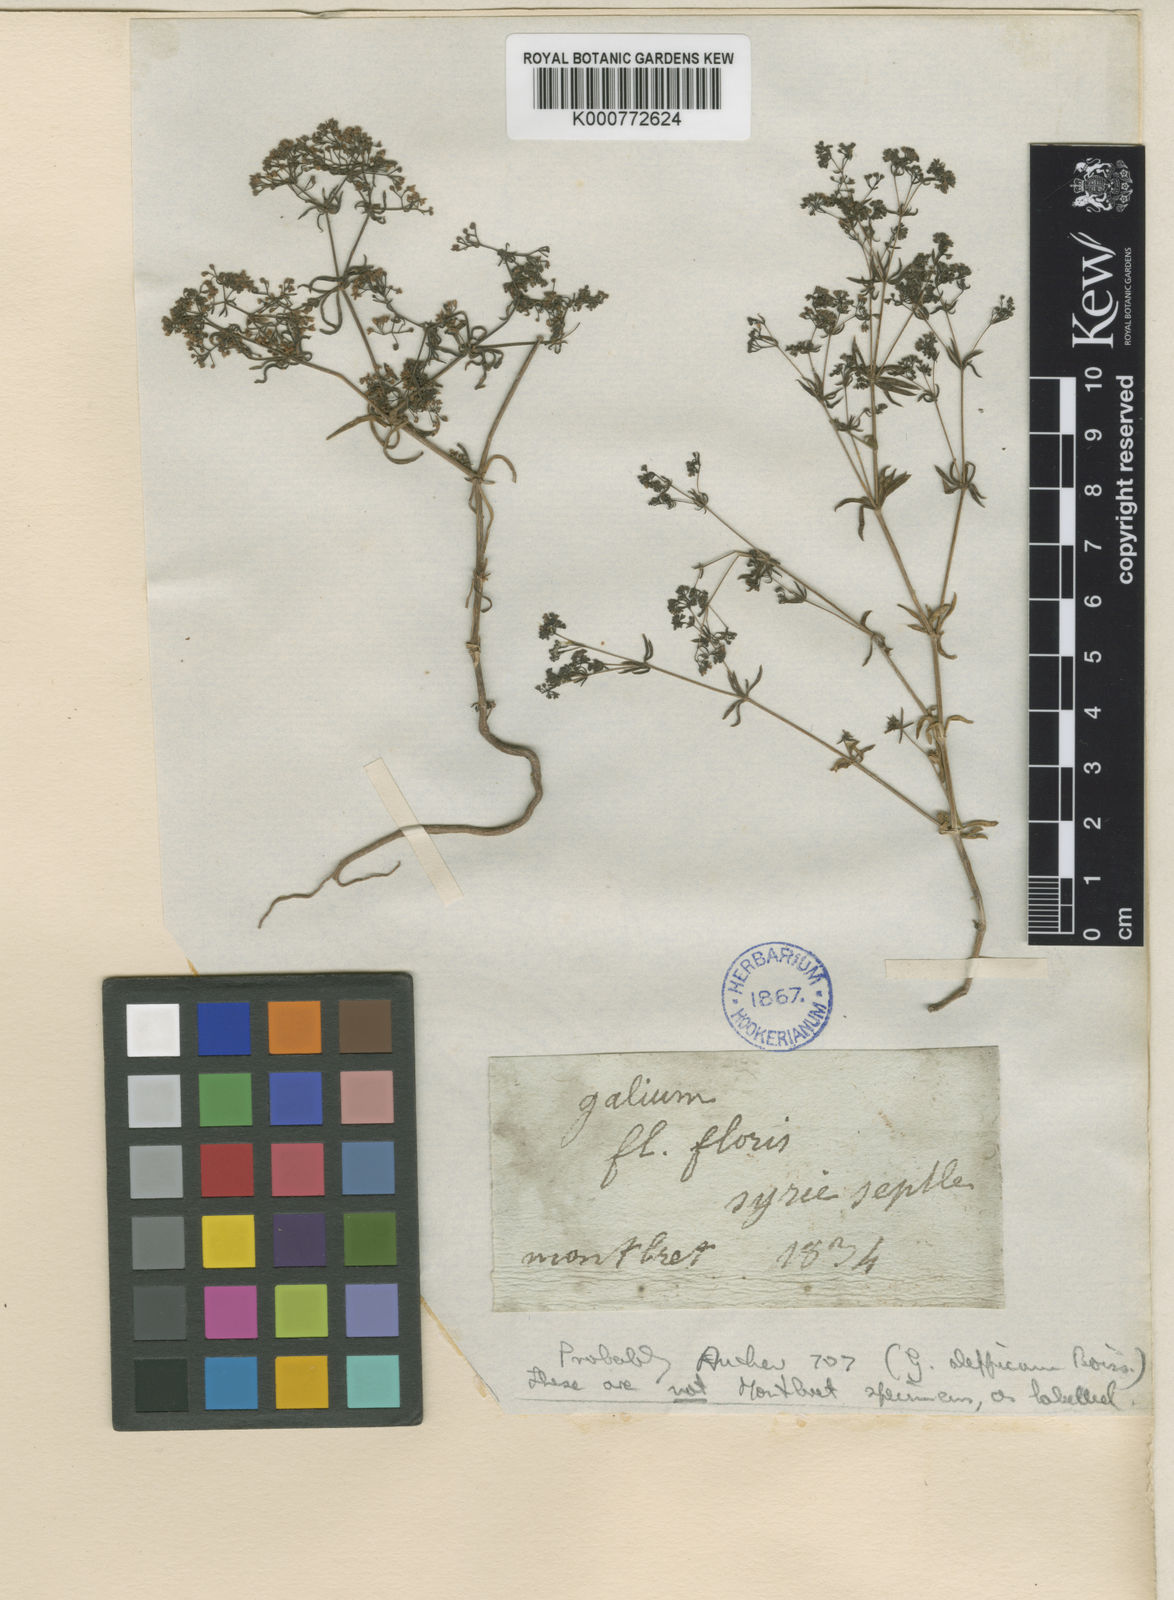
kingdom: Plantae
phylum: Tracheophyta
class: Magnoliopsida
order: Gentianales
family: Rubiaceae
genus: Galium
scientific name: Galium nigricans
